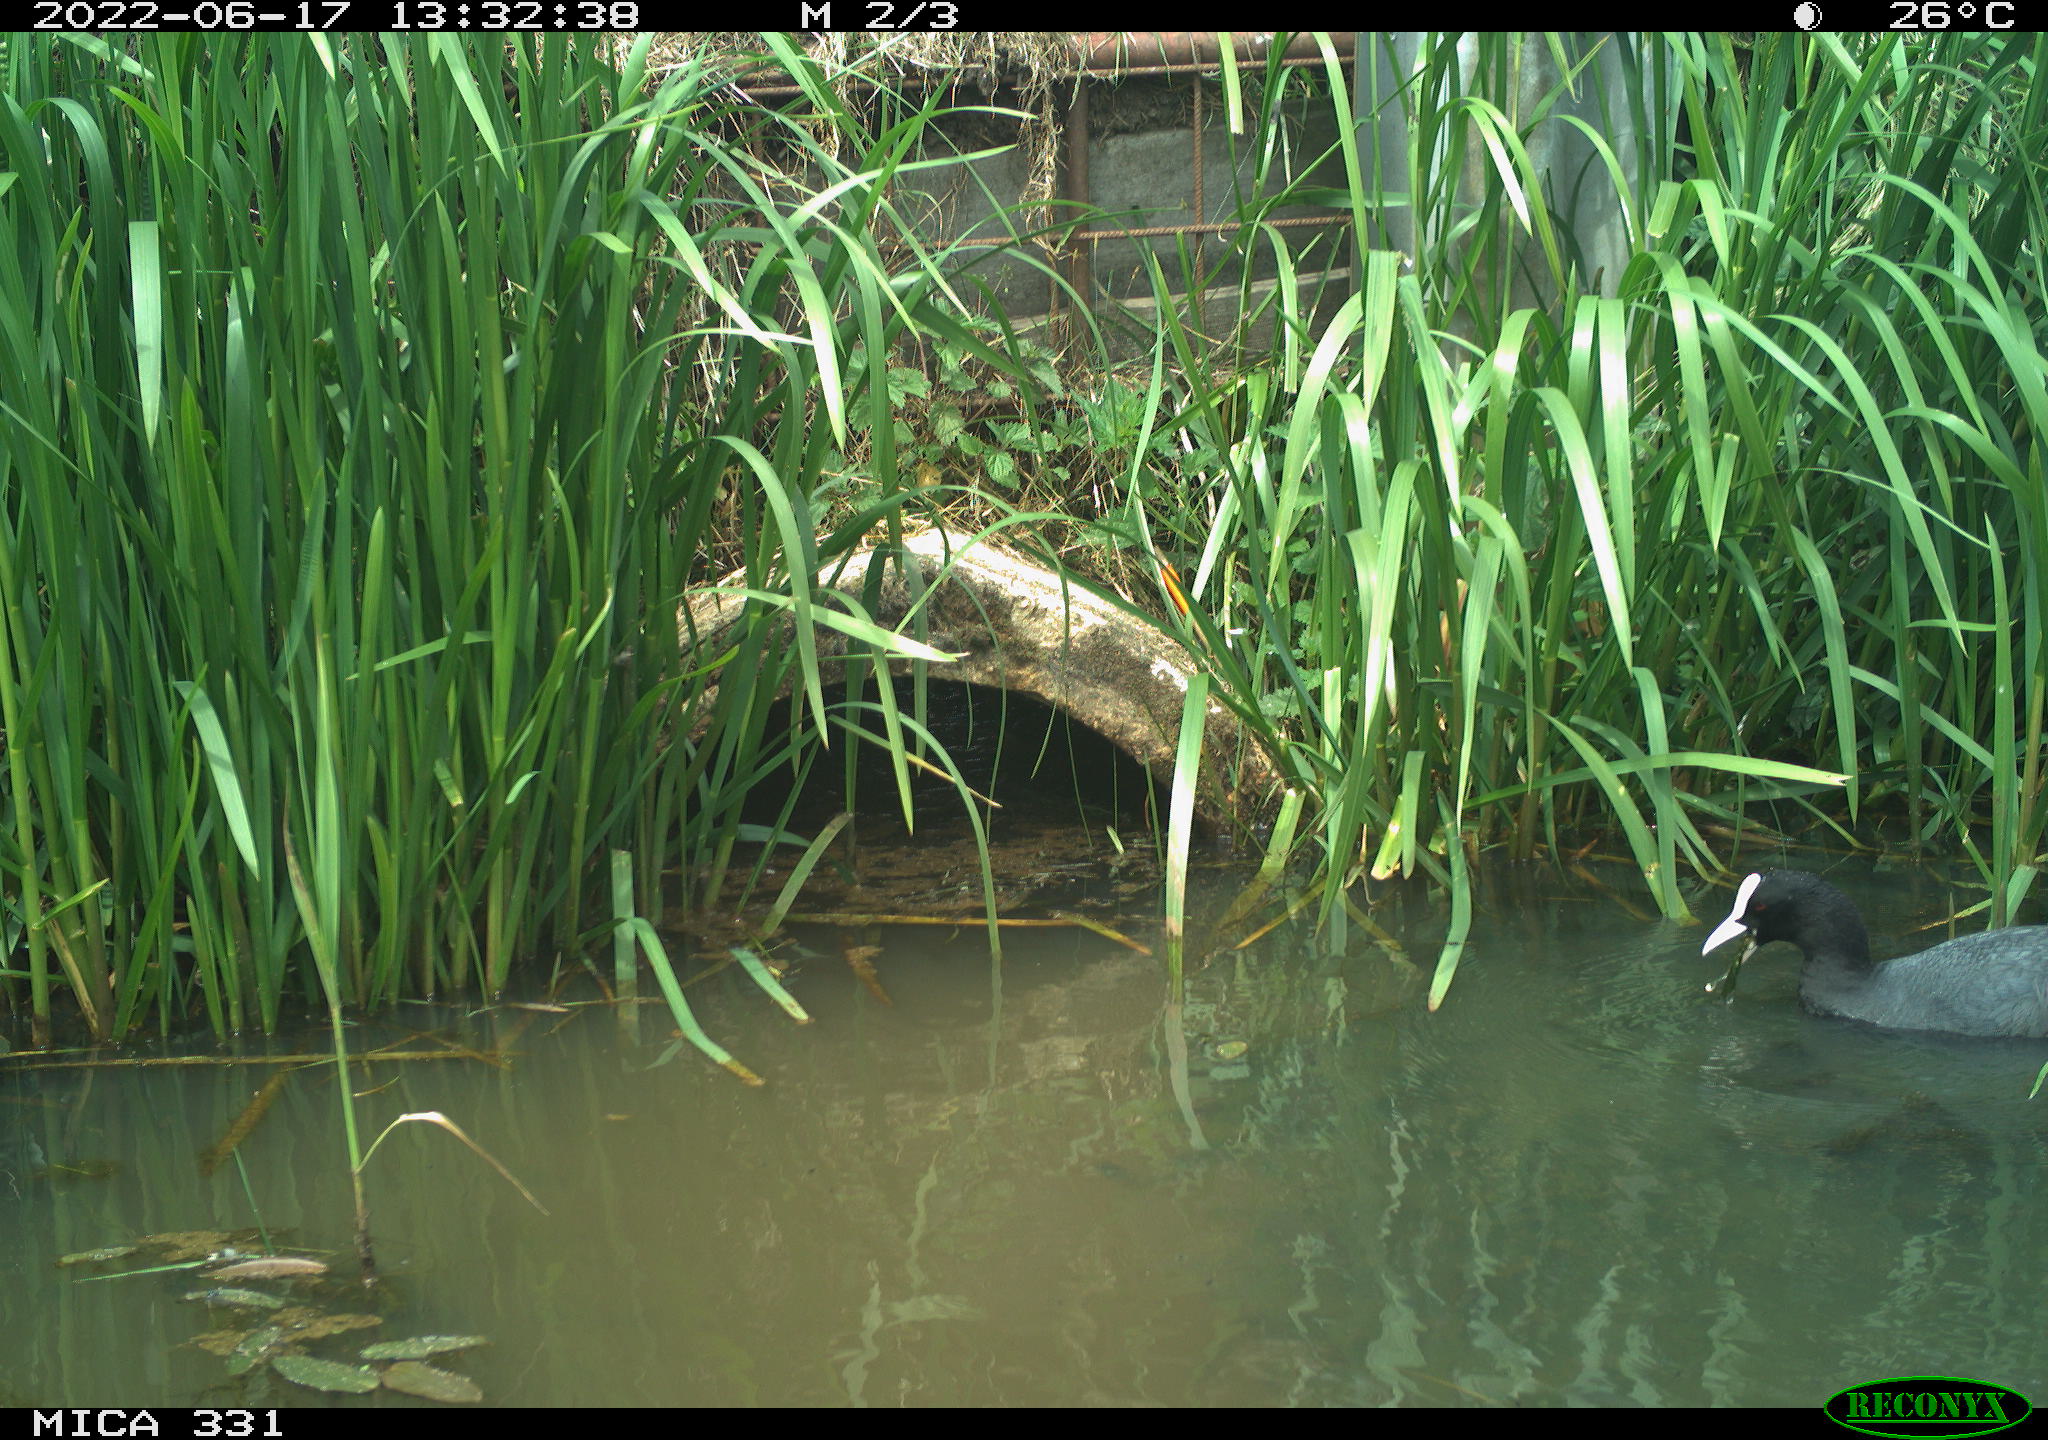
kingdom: Animalia
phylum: Chordata
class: Aves
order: Gruiformes
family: Rallidae
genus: Fulica
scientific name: Fulica atra
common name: Eurasian coot
